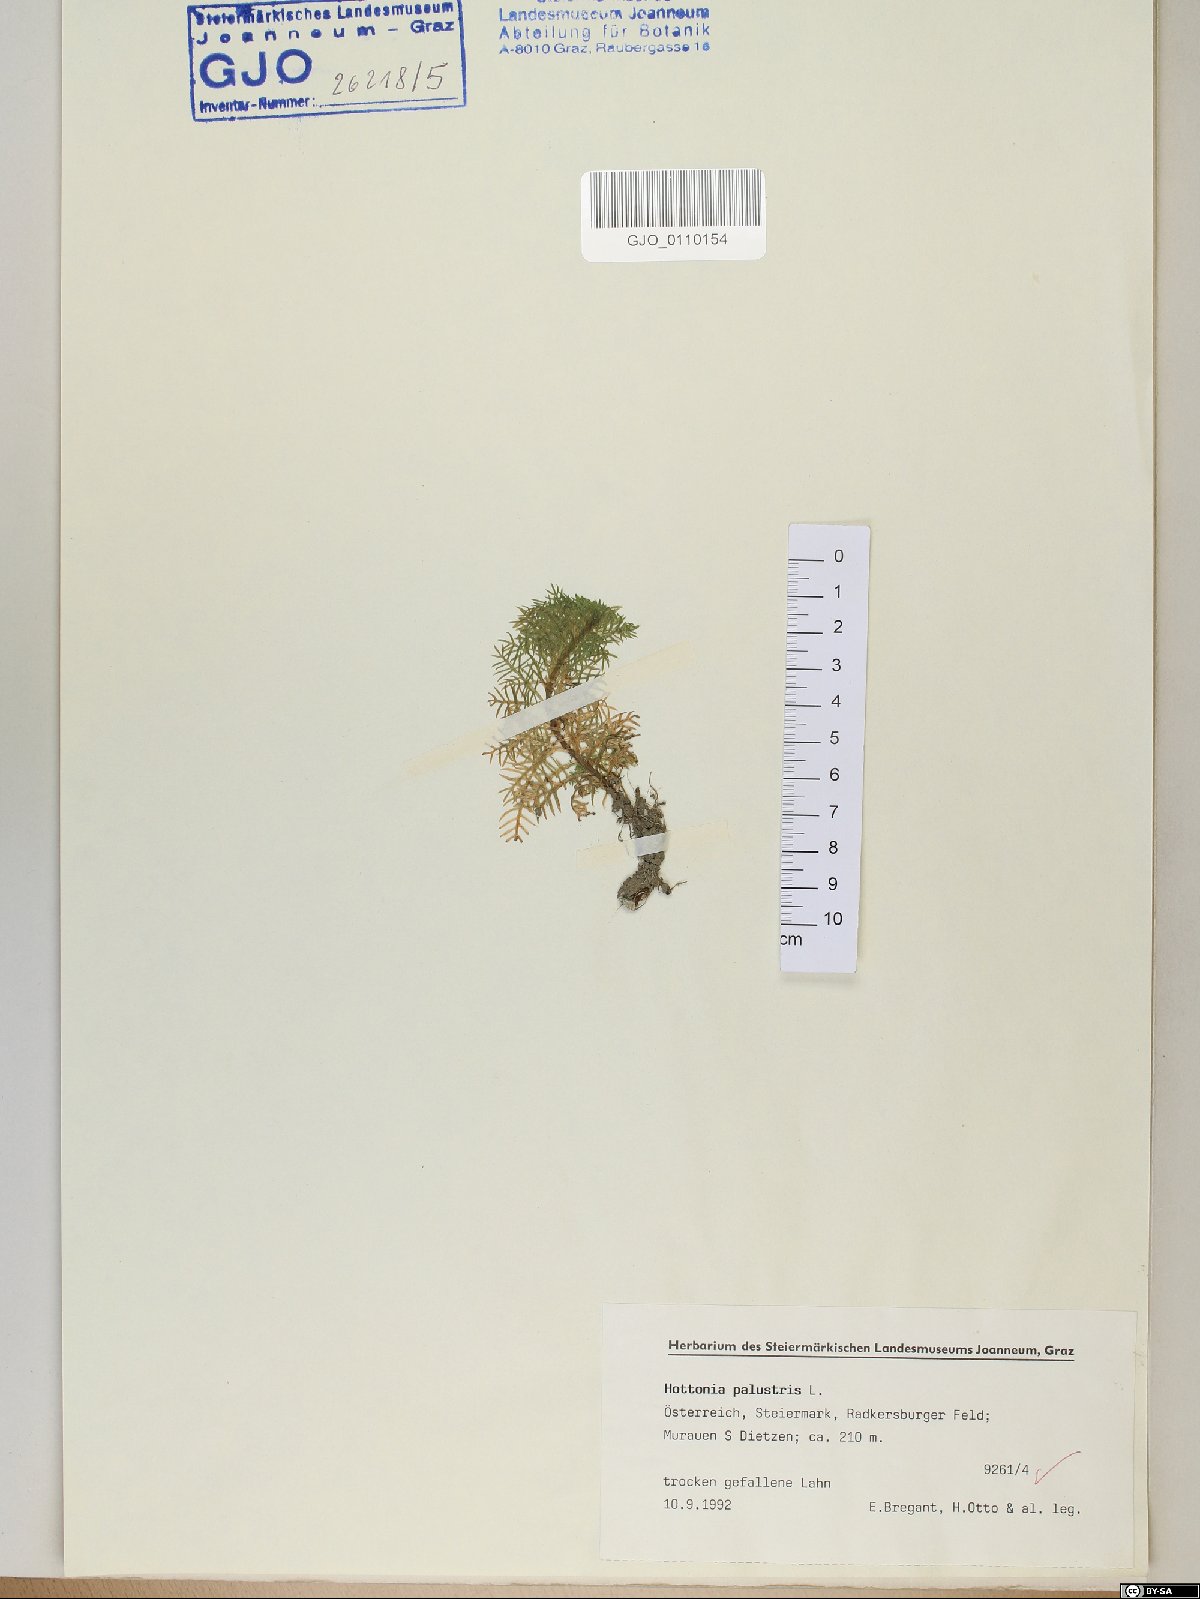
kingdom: Plantae
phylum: Tracheophyta
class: Magnoliopsida
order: Ericales
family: Primulaceae
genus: Hottonia
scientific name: Hottonia palustris
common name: Water-violet
